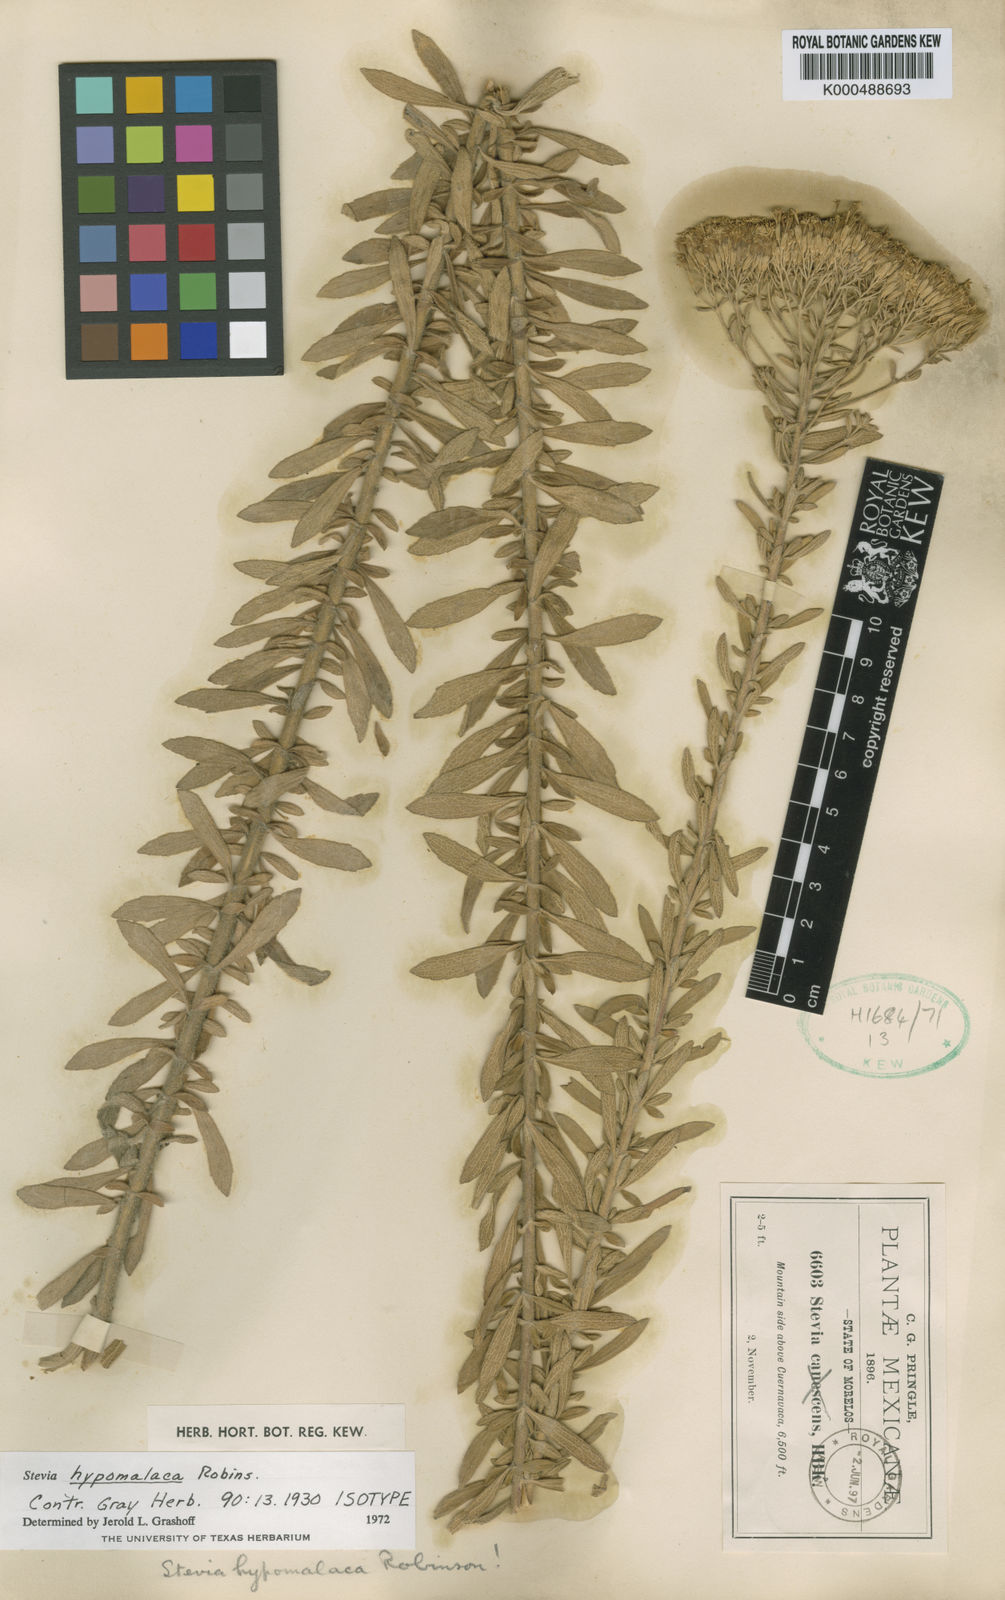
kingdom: Plantae
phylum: Tracheophyta
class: Magnoliopsida
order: Asterales
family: Asteraceae
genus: Stevia
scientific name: Stevia hypomalaca
